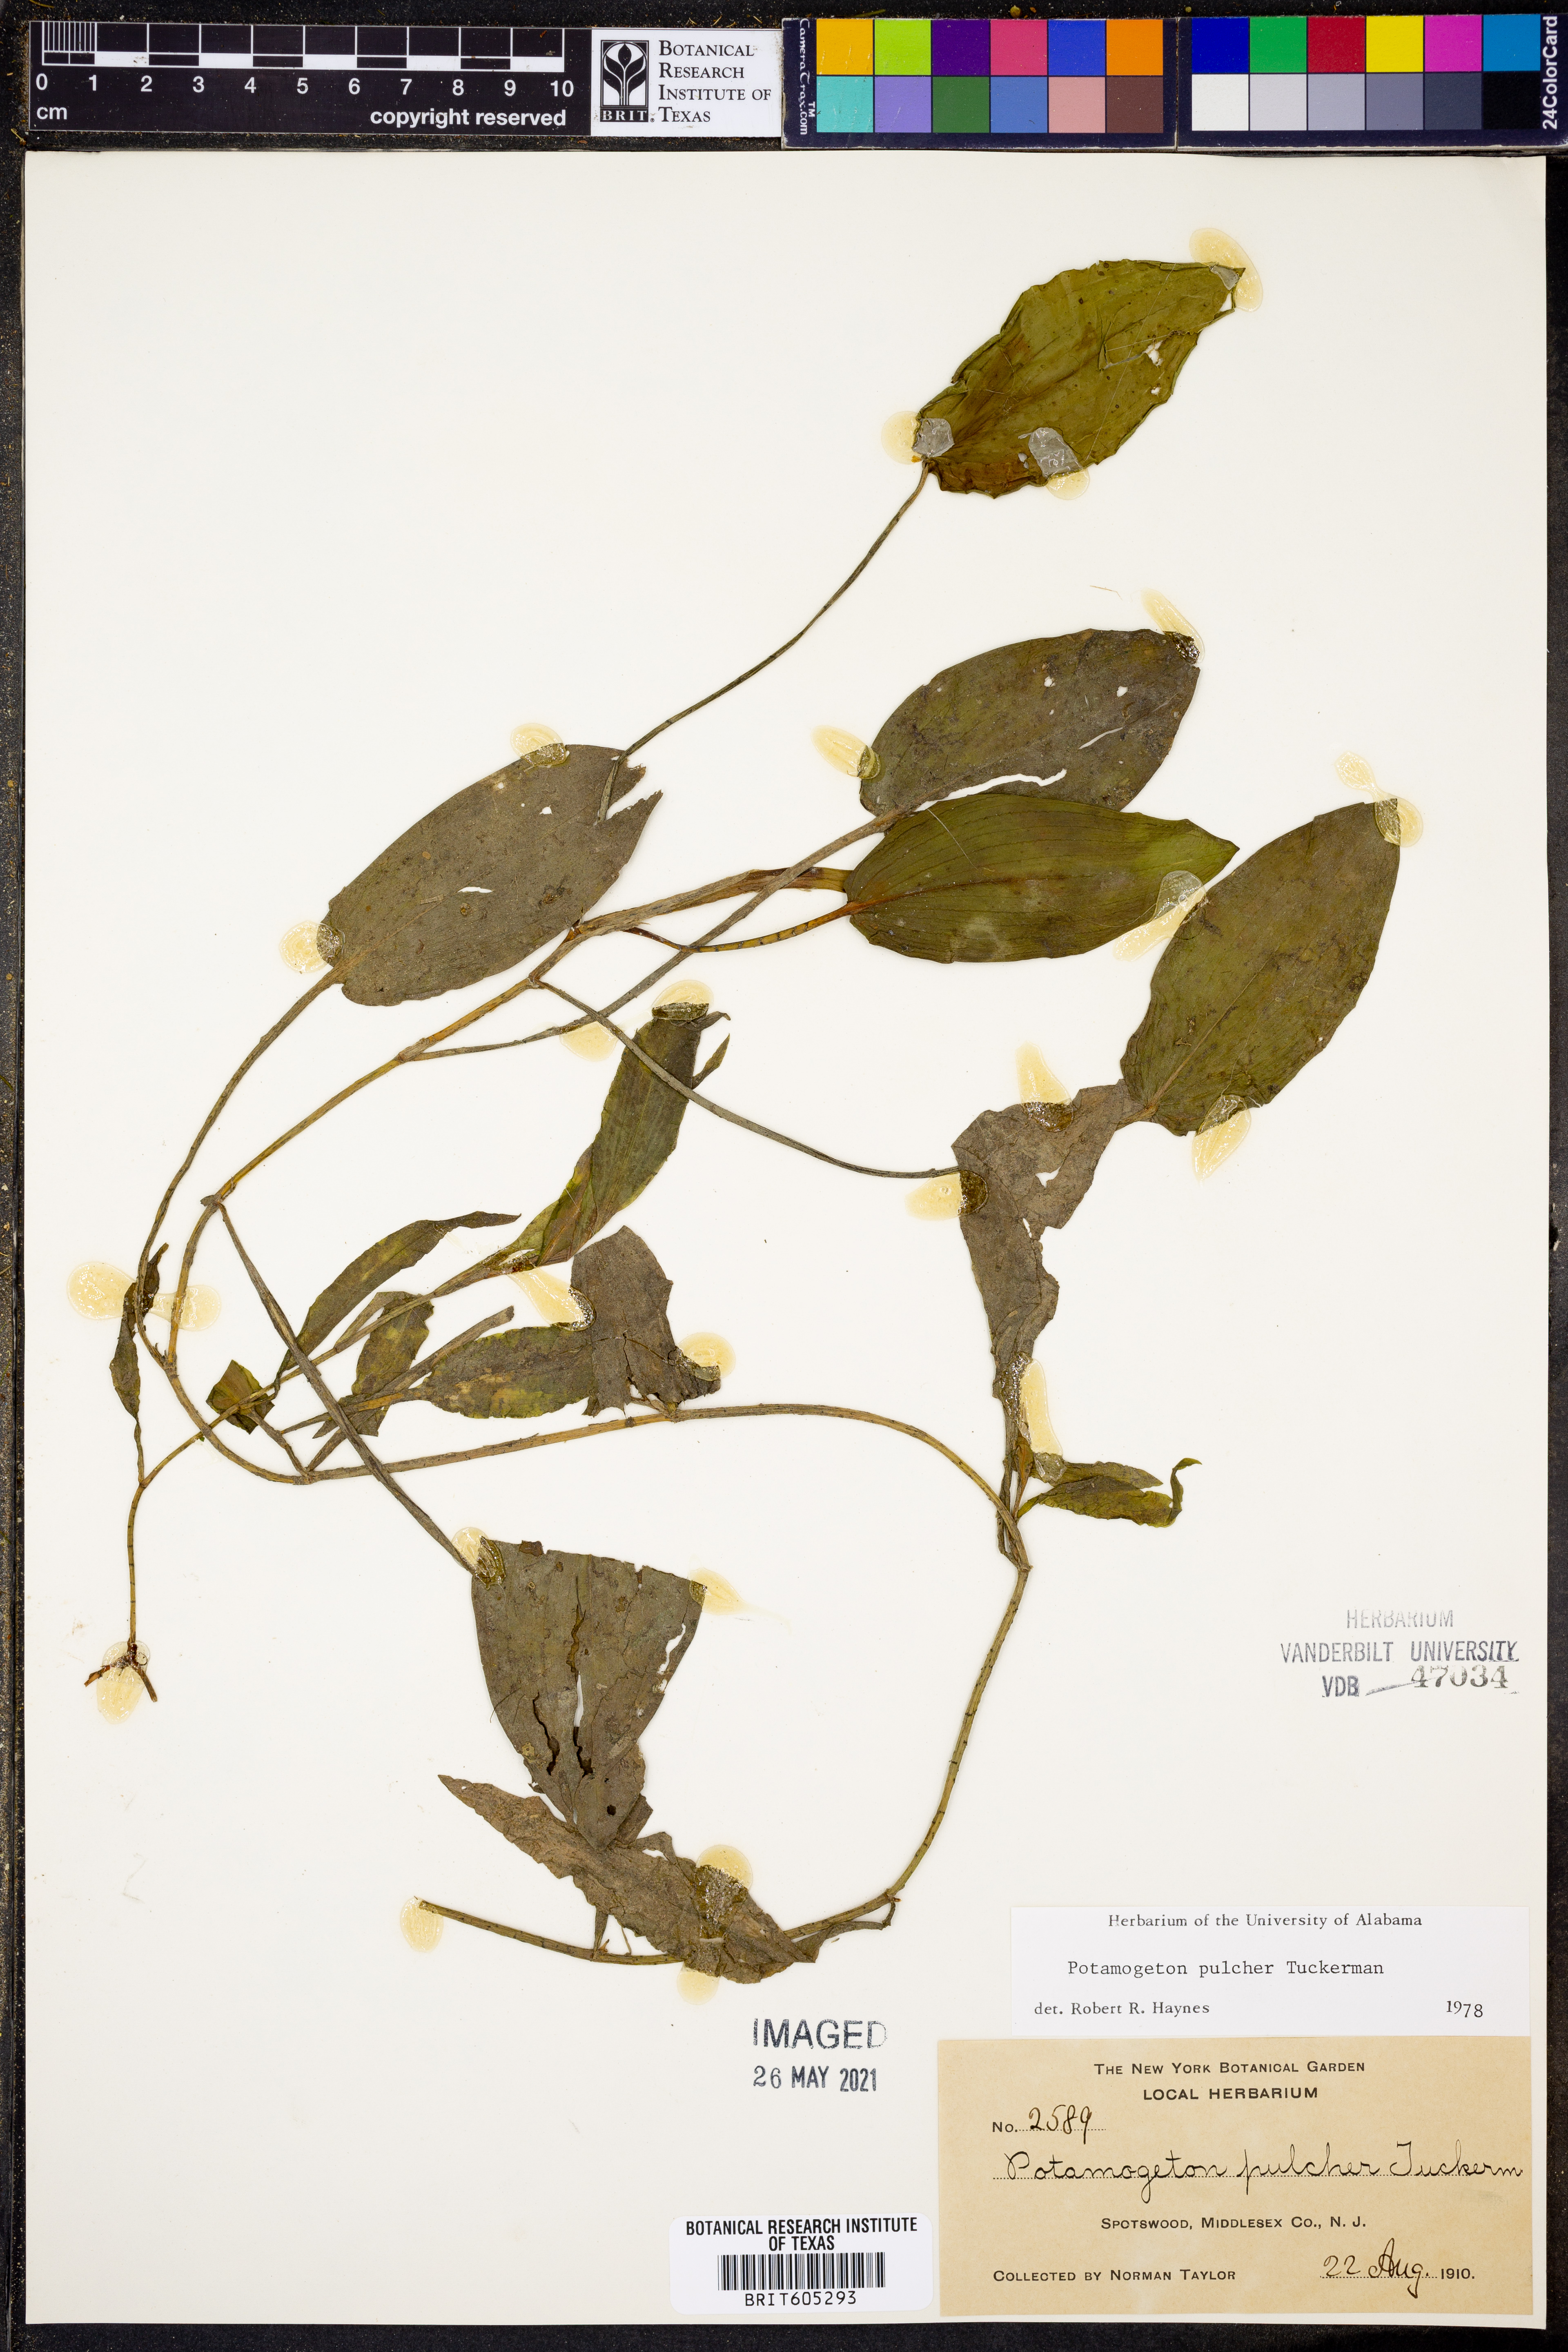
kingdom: Plantae
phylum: Tracheophyta
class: Liliopsida
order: Alismatales
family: Potamogetonaceae
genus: Potamogeton
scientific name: Potamogeton pulcher
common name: Heart-leaved pondweed
